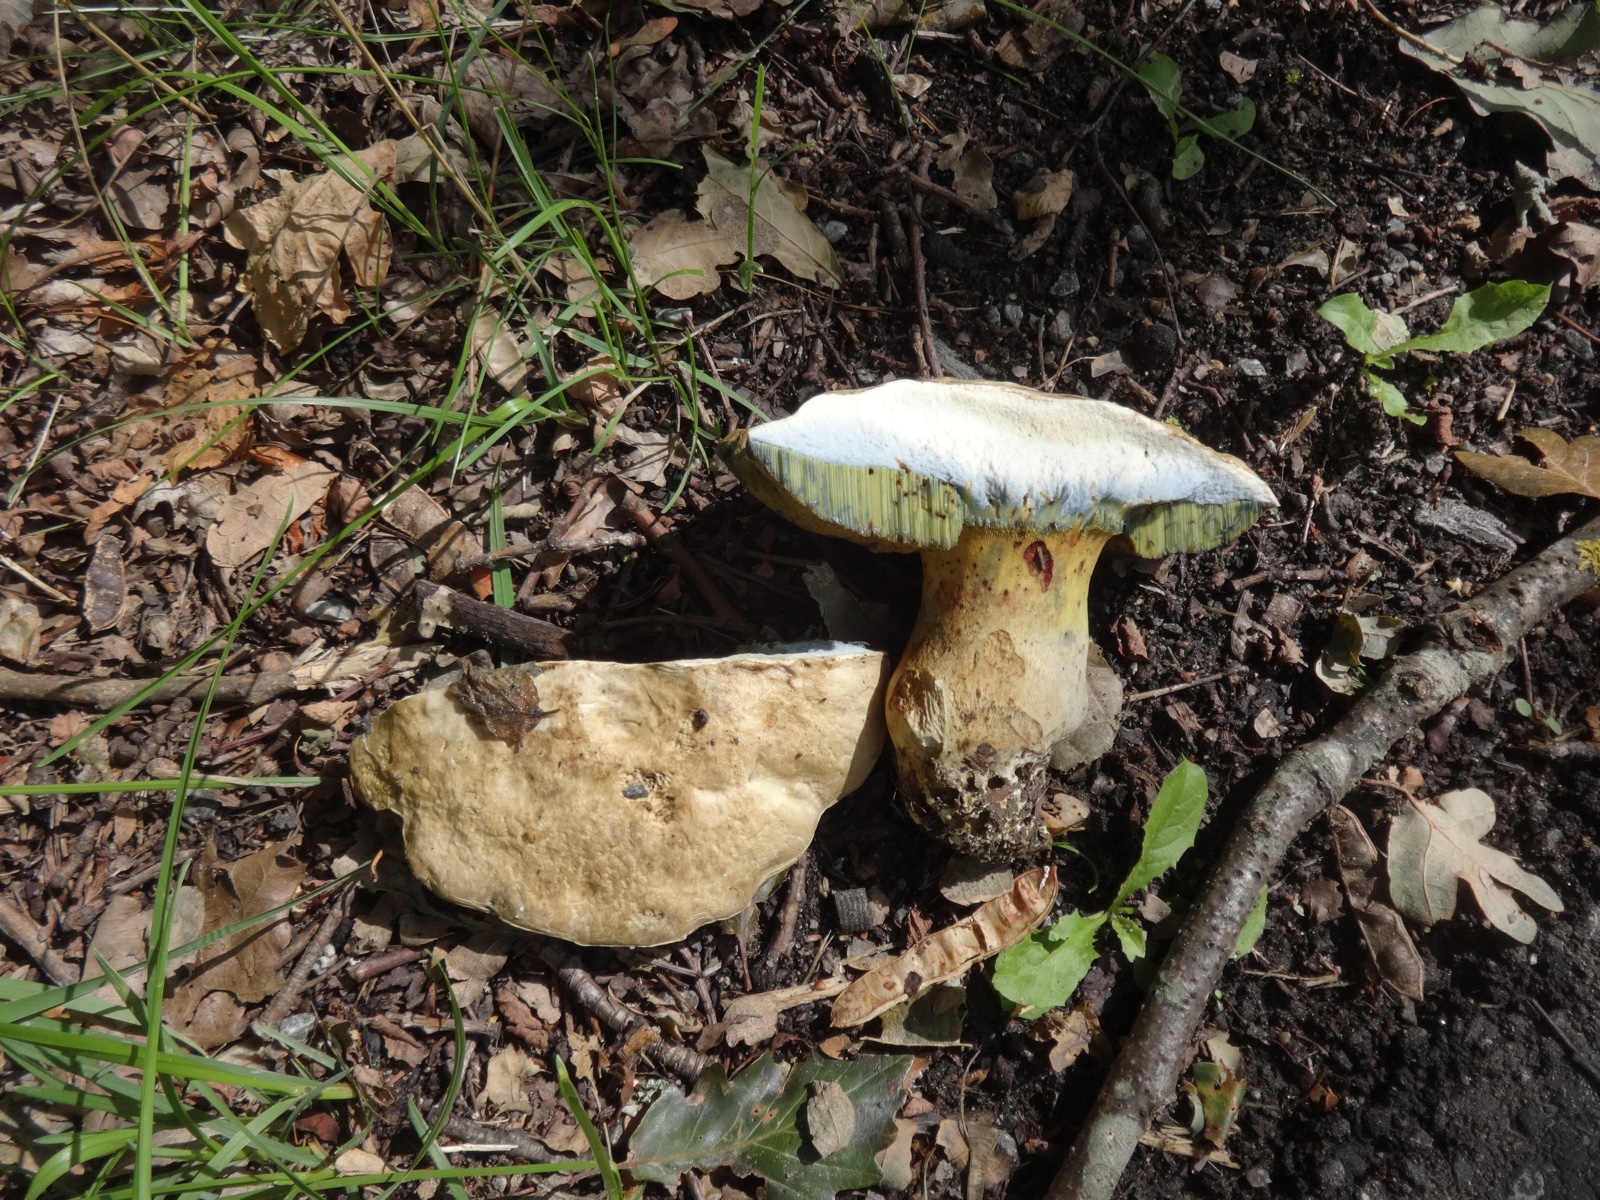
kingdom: Fungi
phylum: Basidiomycota
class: Agaricomycetes
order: Boletales
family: Boletaceae
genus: Caloboletus
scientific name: Caloboletus radicans
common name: rod-rørhat
